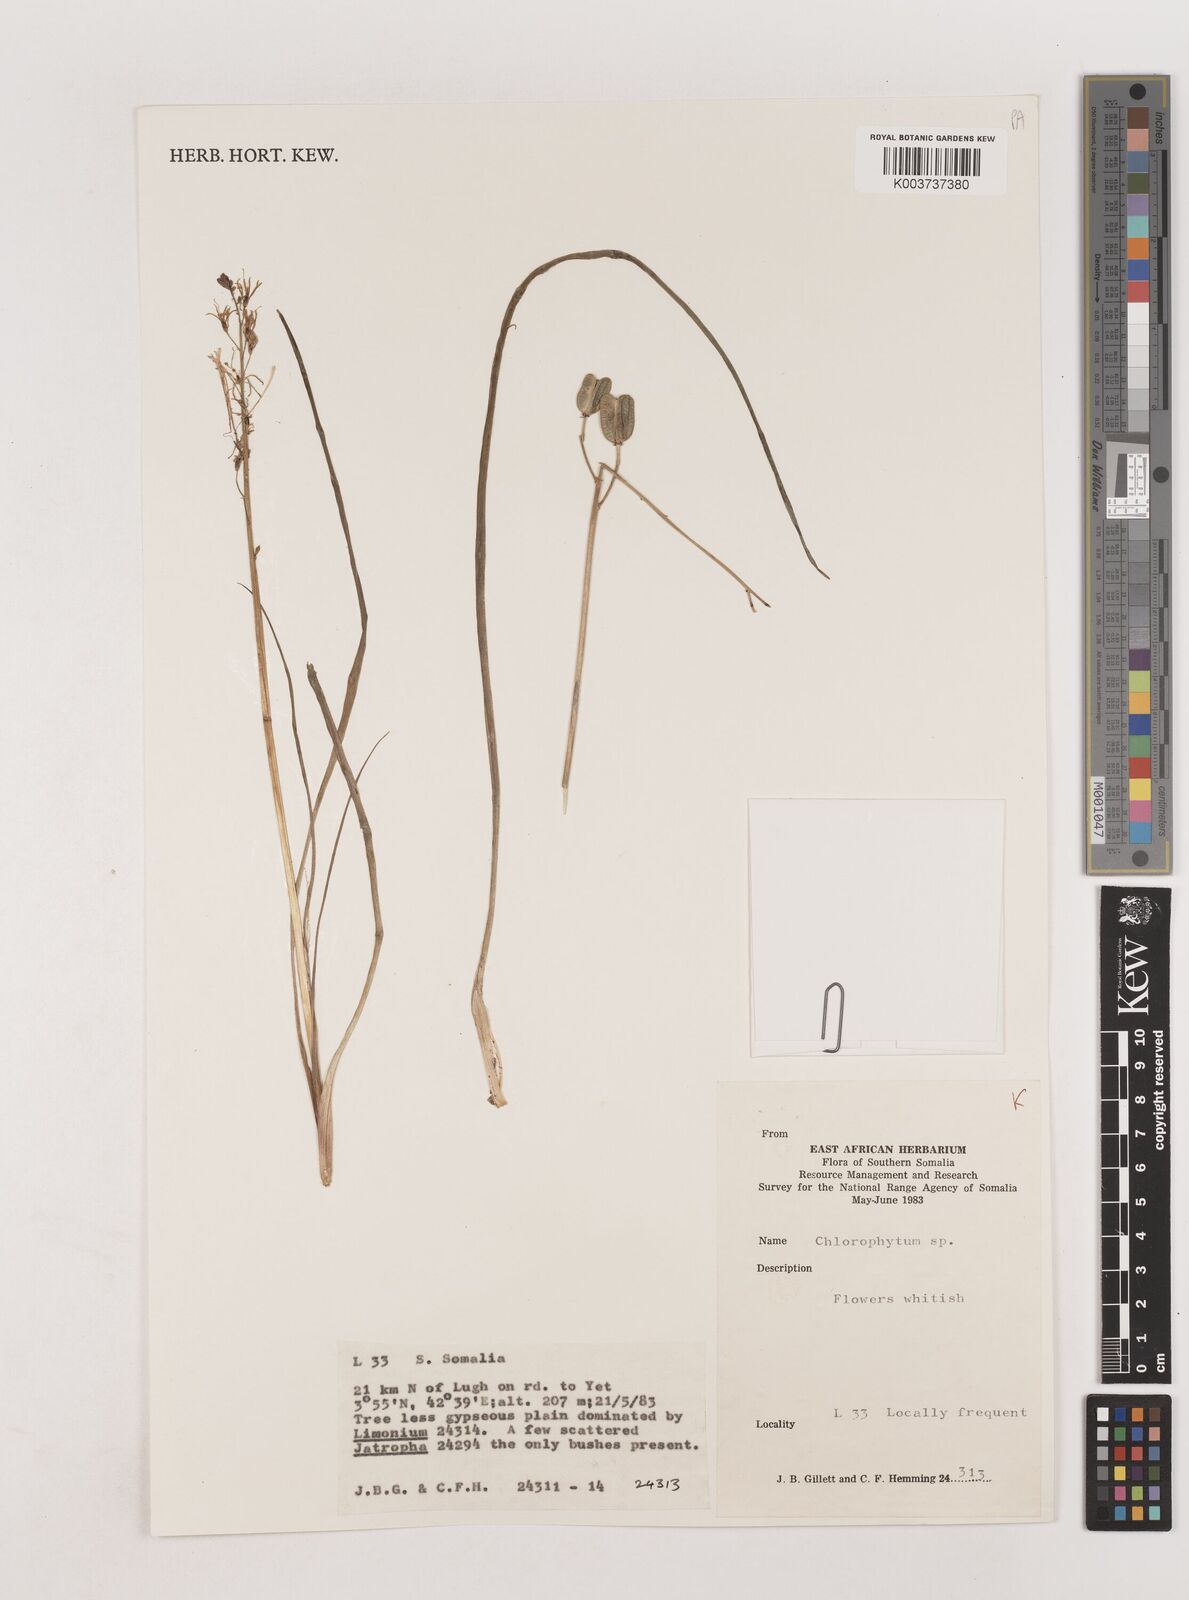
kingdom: Plantae
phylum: Tracheophyta
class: Liliopsida
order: Asparagales
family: Asparagaceae
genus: Chlorophytum
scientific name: Chlorophytum somaliense
